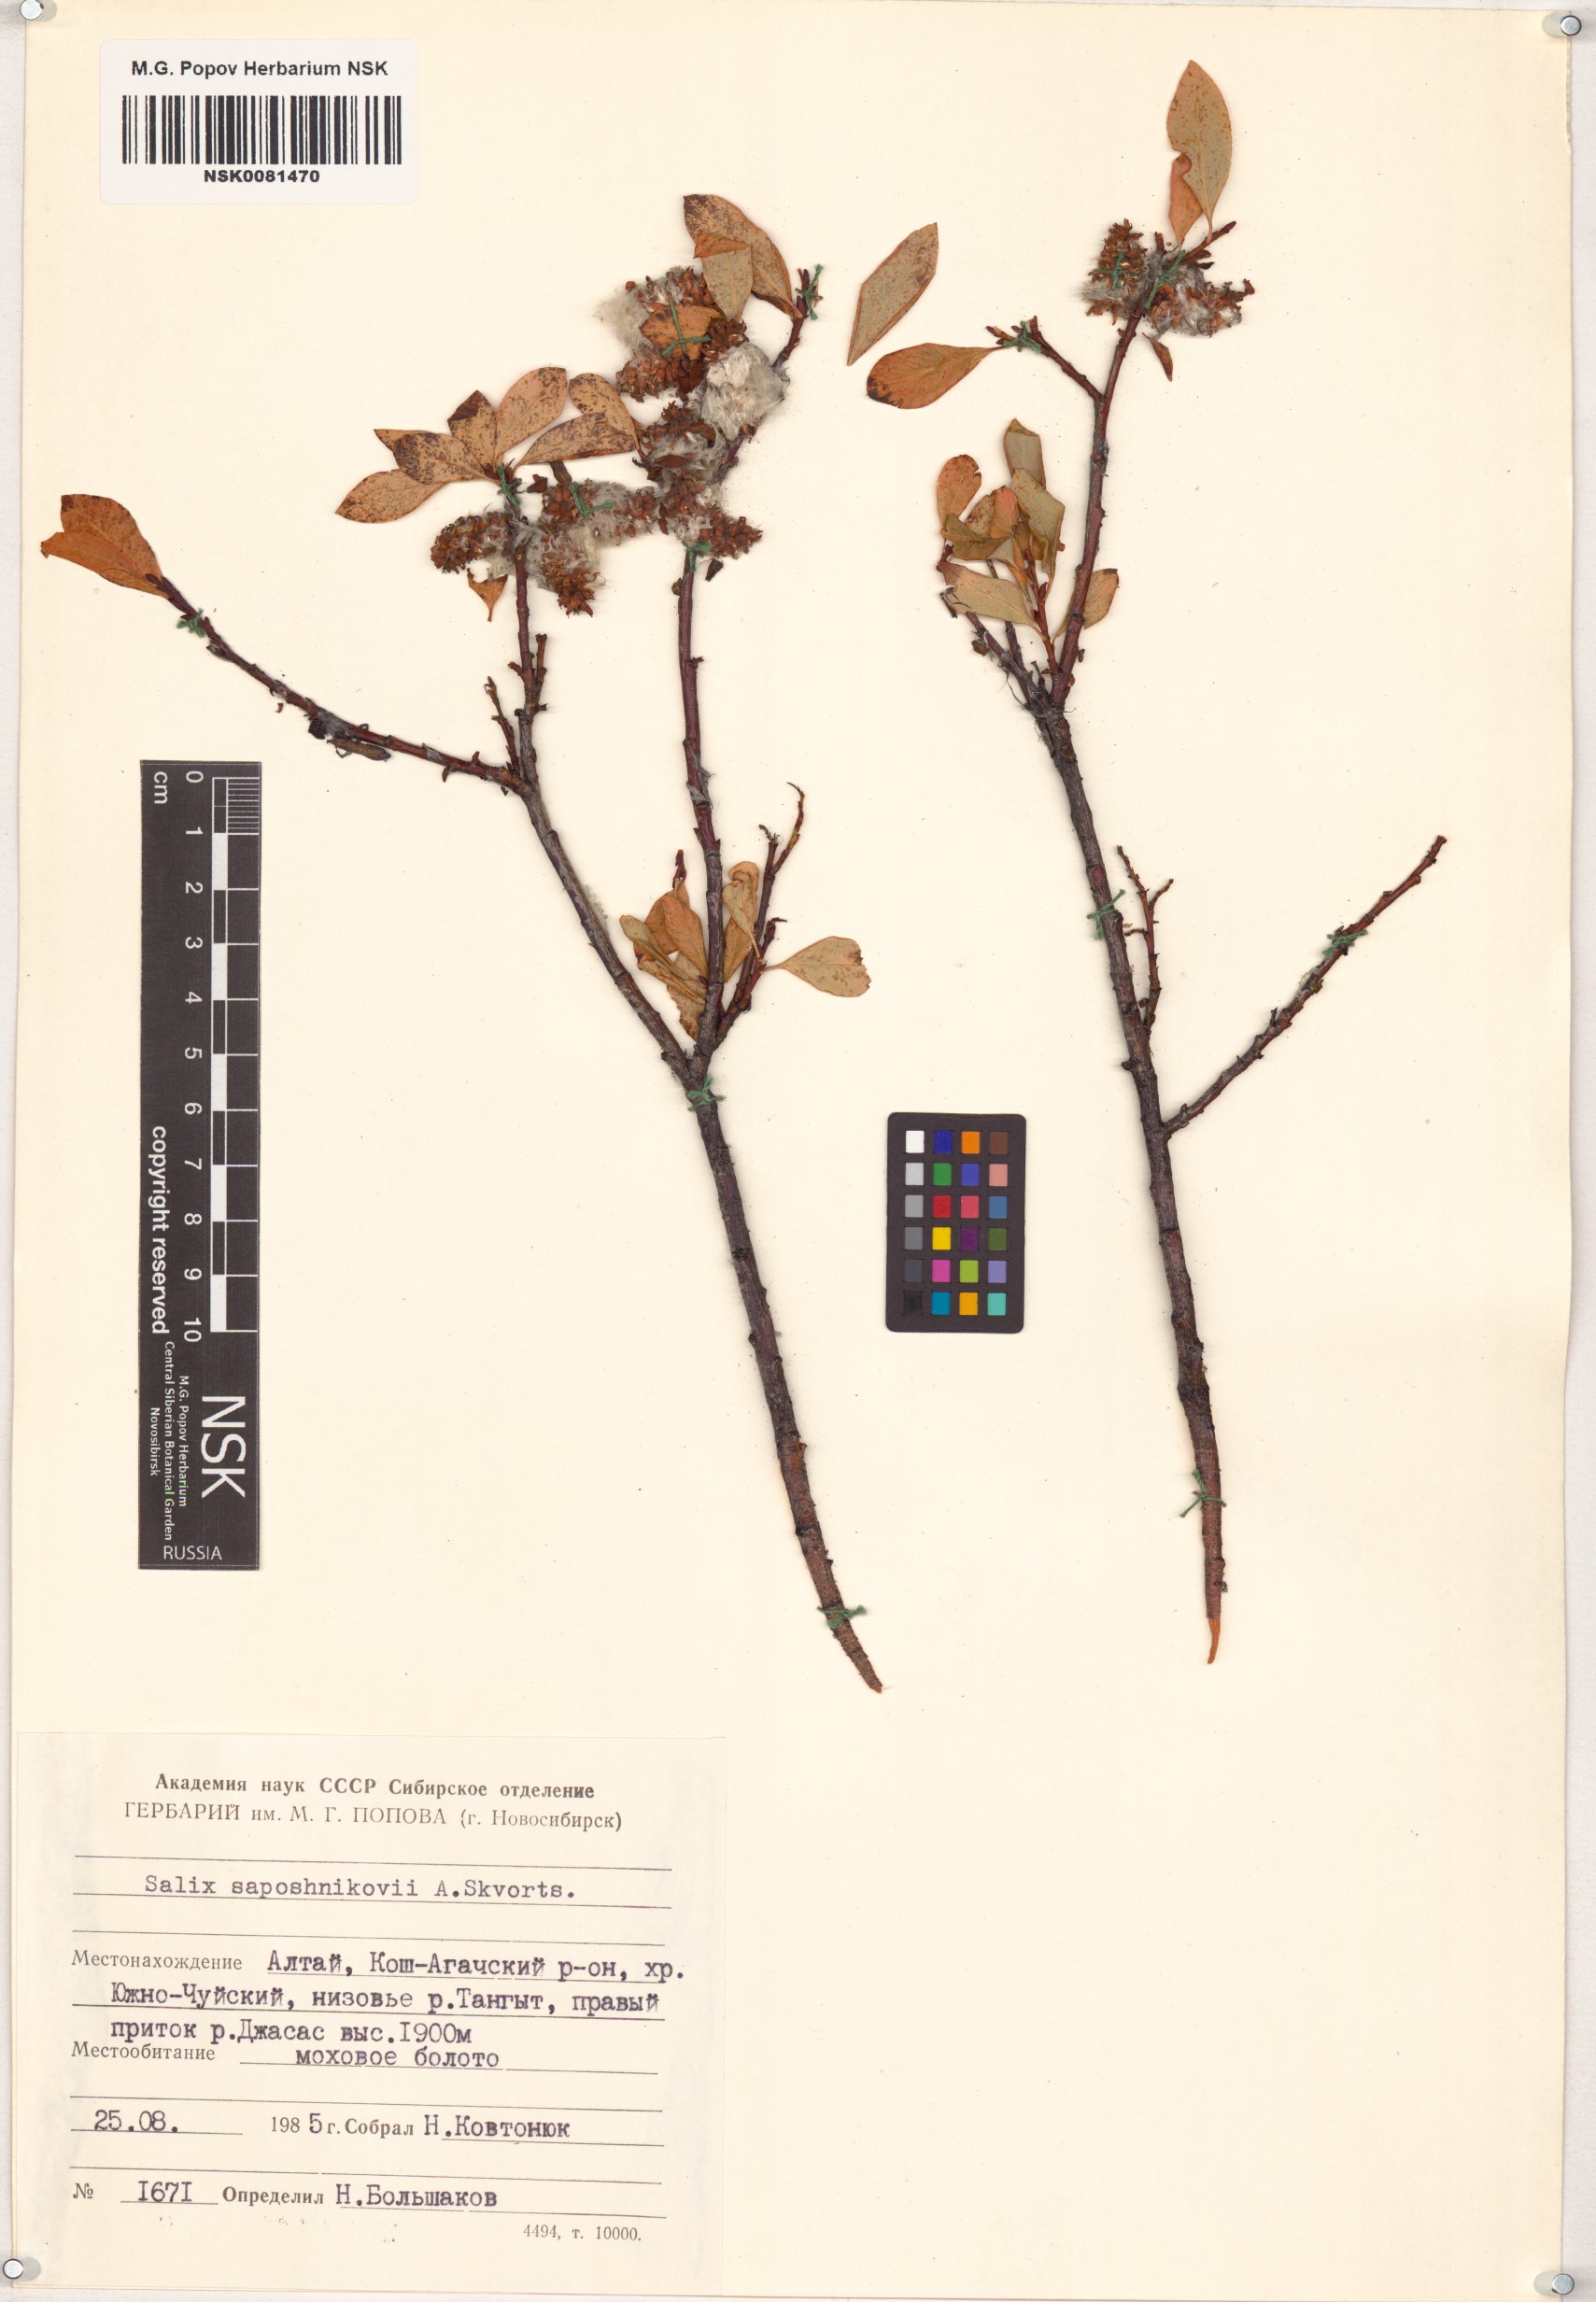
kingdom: Plantae
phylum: Tracheophyta
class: Magnoliopsida
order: Malpighiales
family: Salicaceae
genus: Salix
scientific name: Salix saposhnikovii
